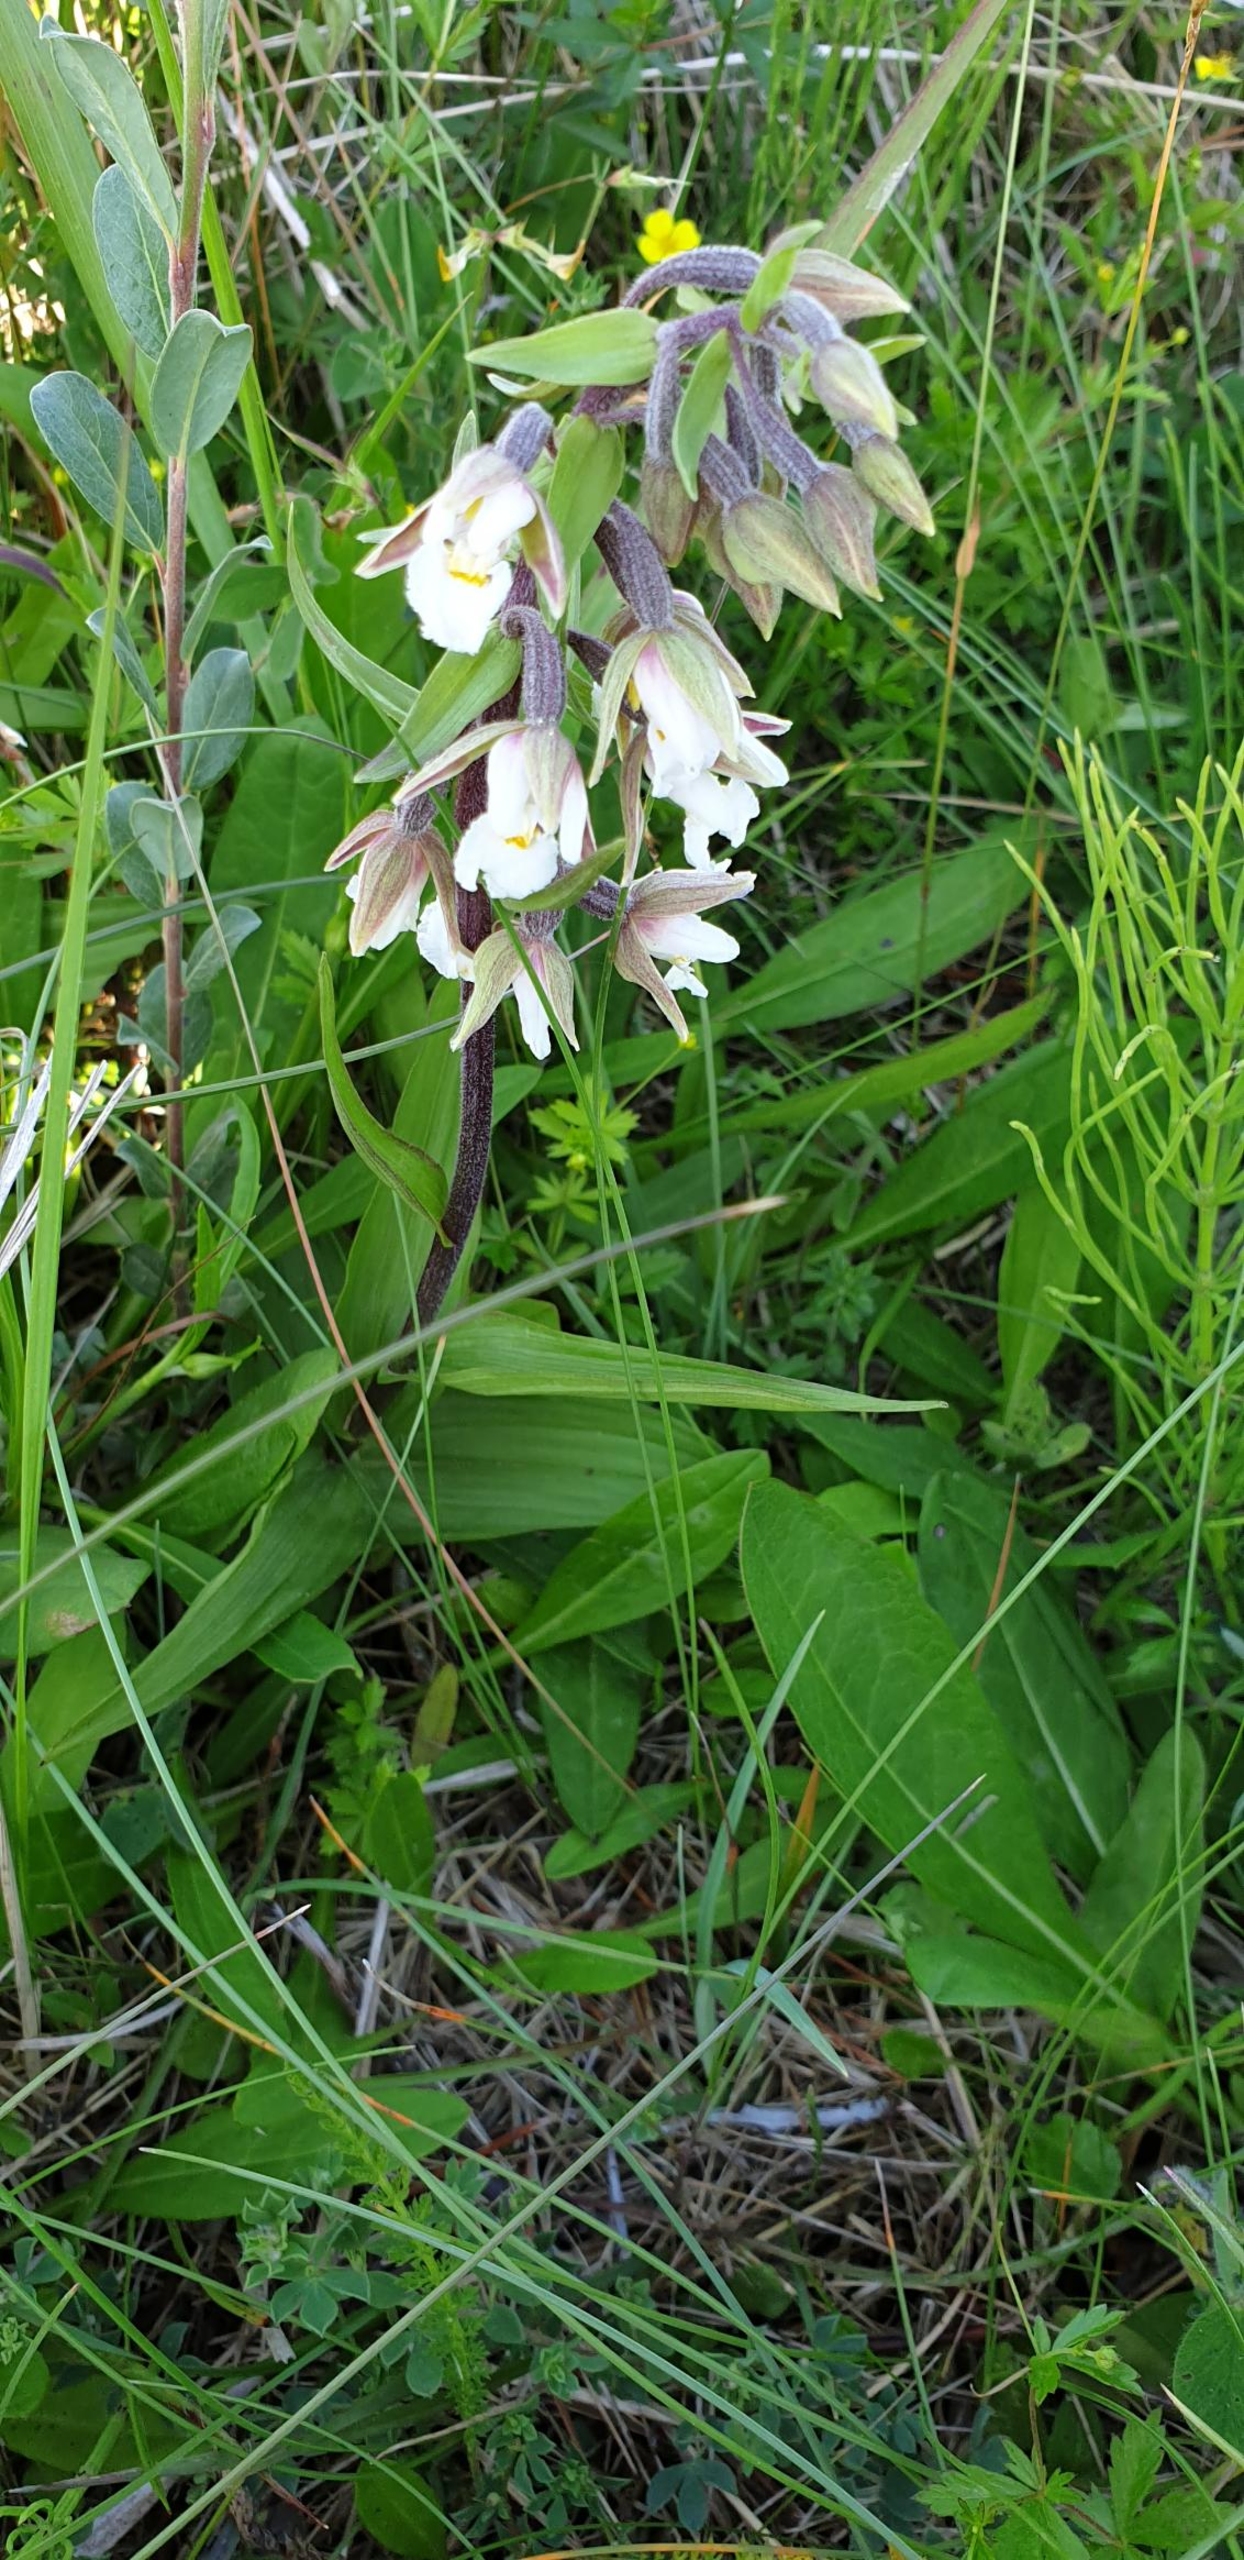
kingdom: Plantae
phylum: Tracheophyta
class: Liliopsida
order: Asparagales
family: Orchidaceae
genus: Epipactis
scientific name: Epipactis palustris
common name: Sump-hullæbe
